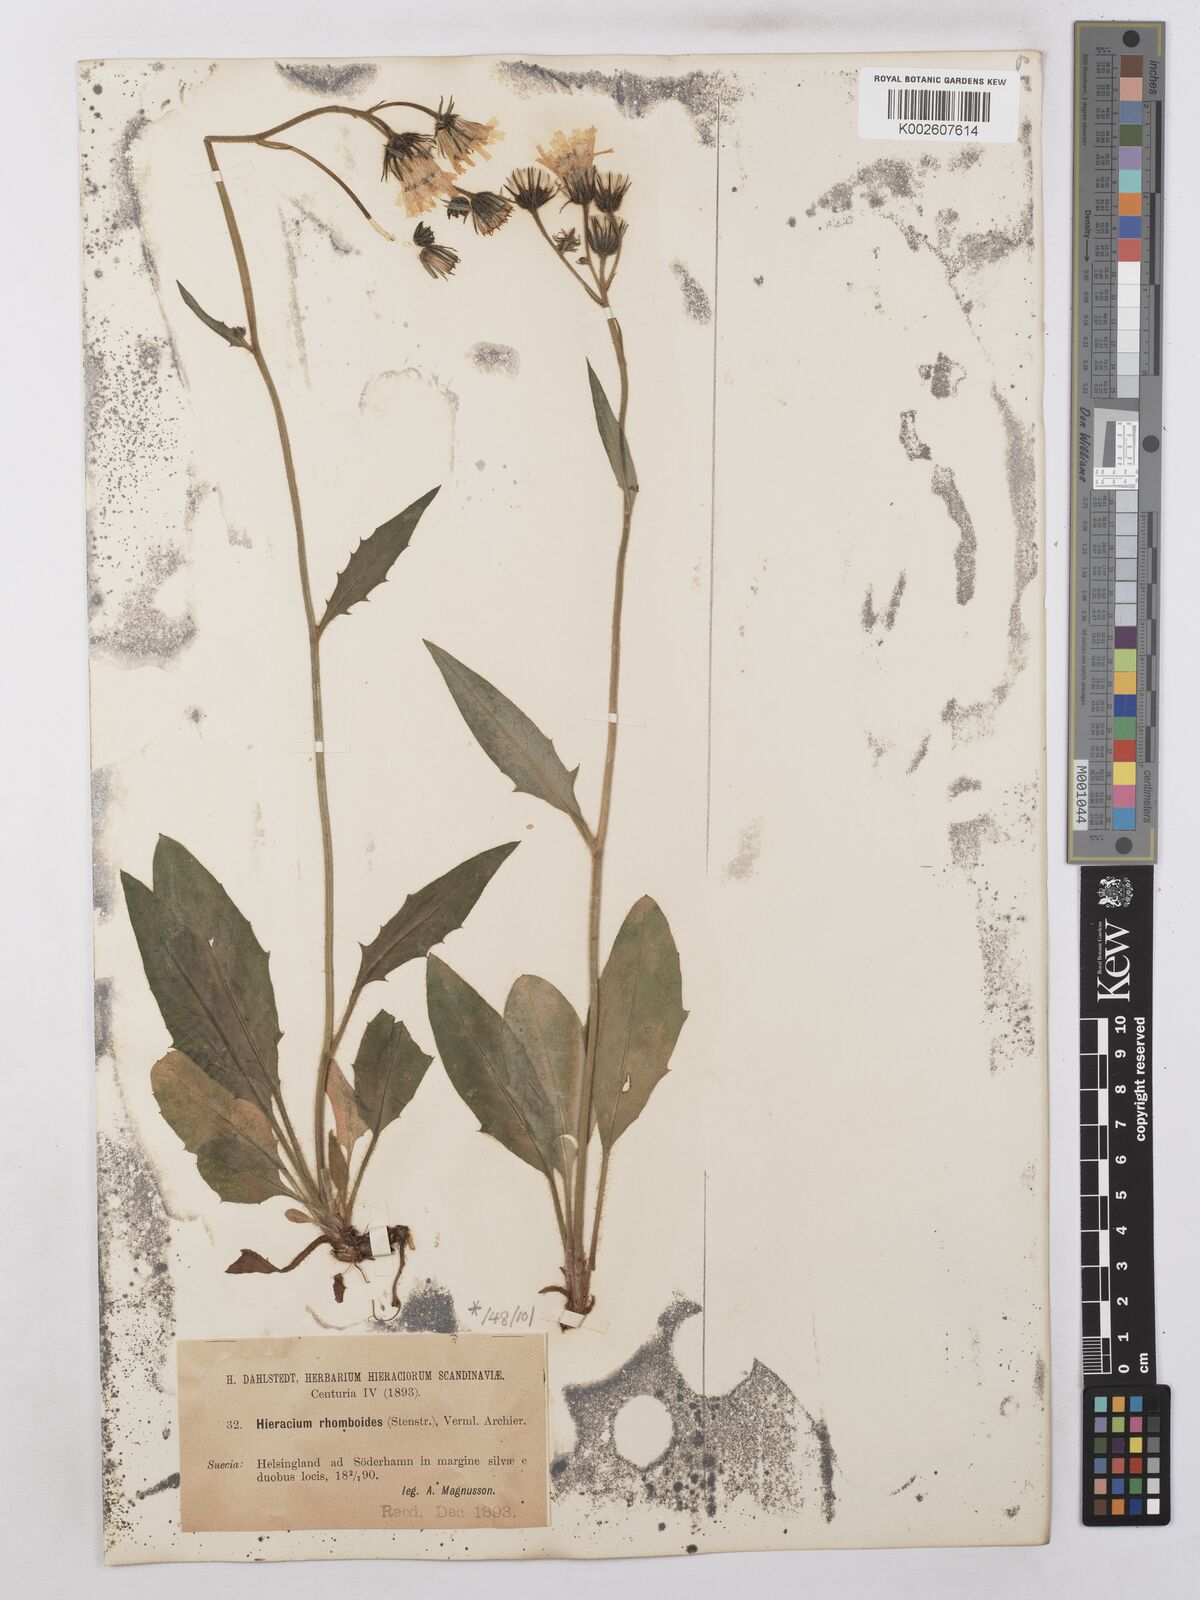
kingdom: Plantae
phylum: Tracheophyta
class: Magnoliopsida
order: Asterales
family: Asteraceae
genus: Hieracium
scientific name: Hieracium subramosum
